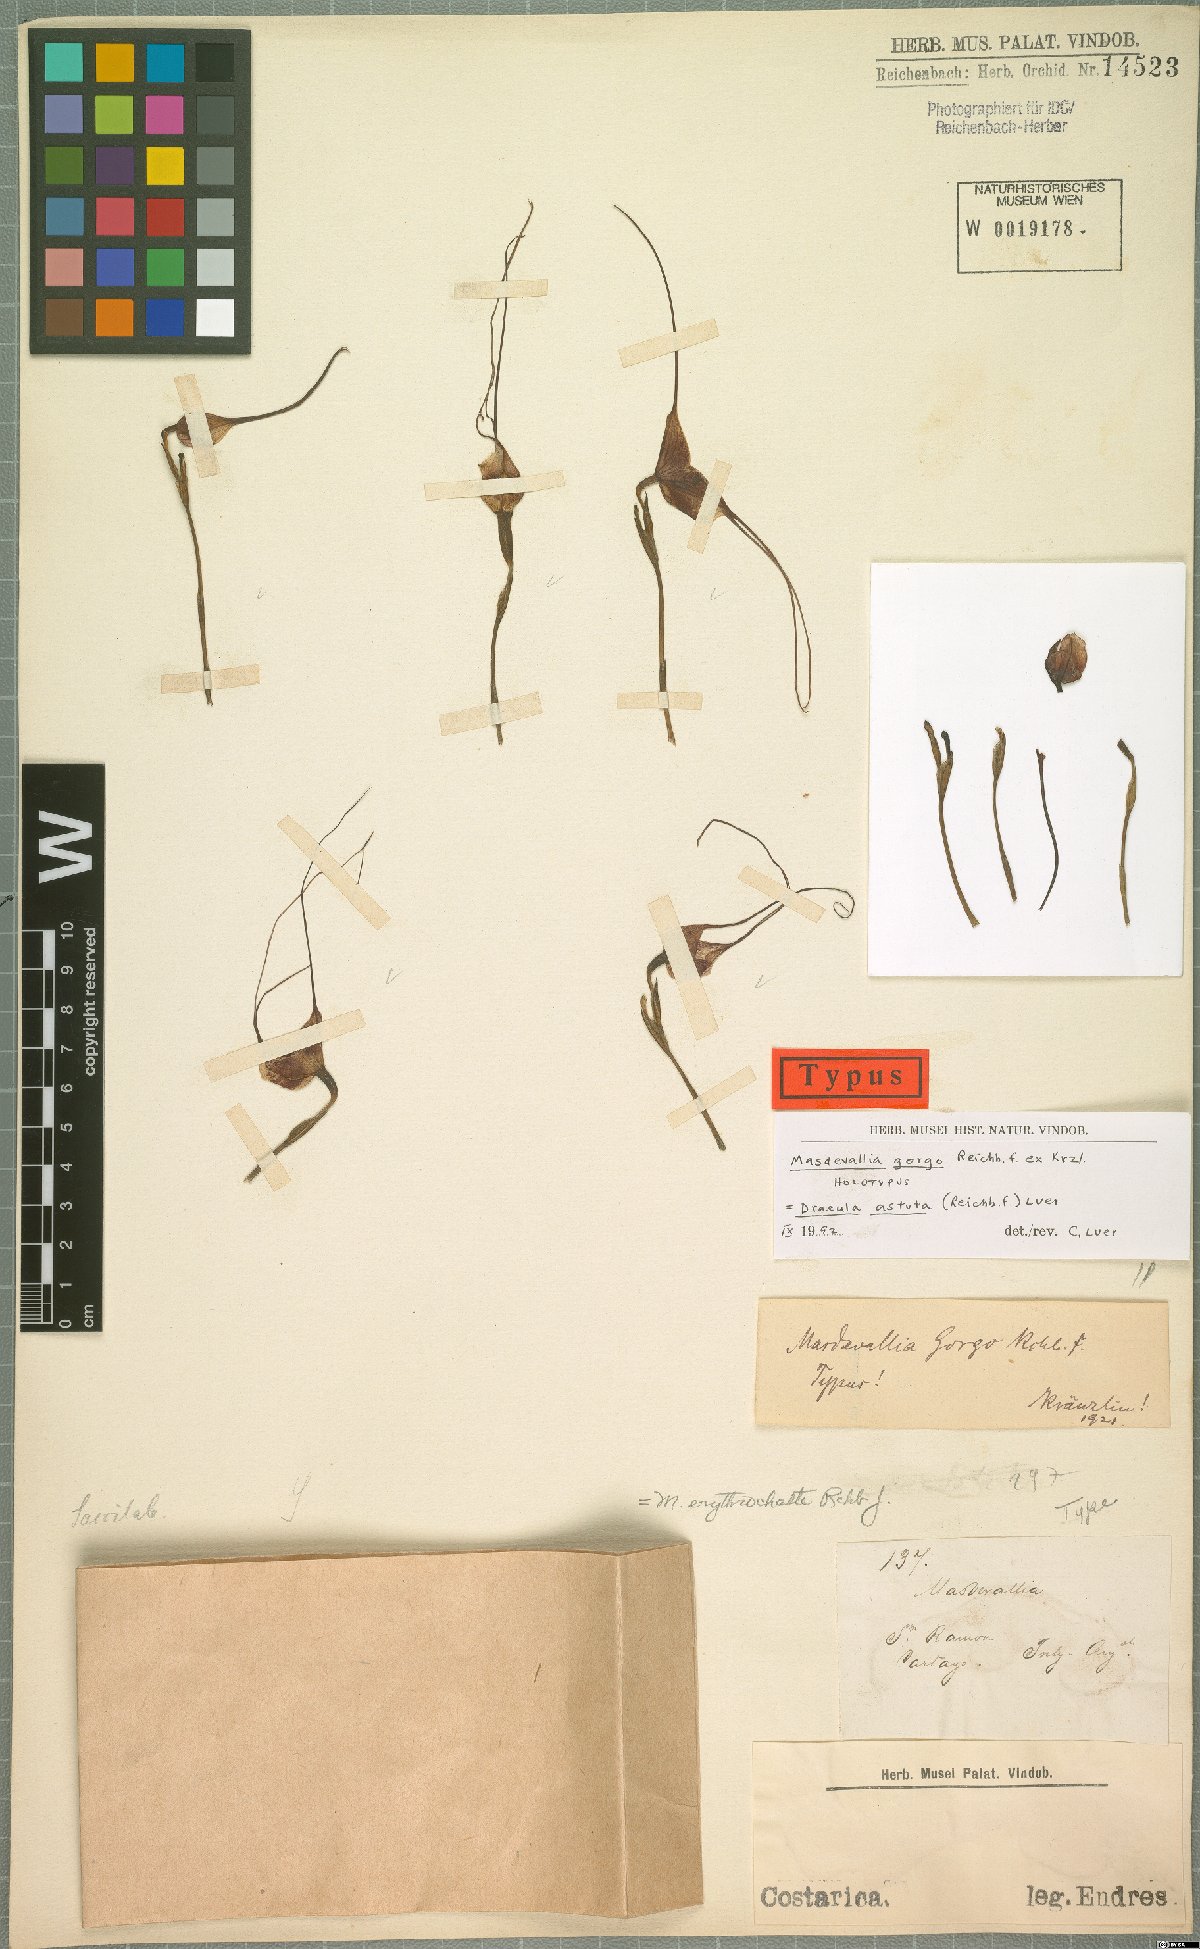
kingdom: Plantae
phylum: Tracheophyta
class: Liliopsida
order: Asparagales
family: Orchidaceae
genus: Dracula
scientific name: Dracula astuta
